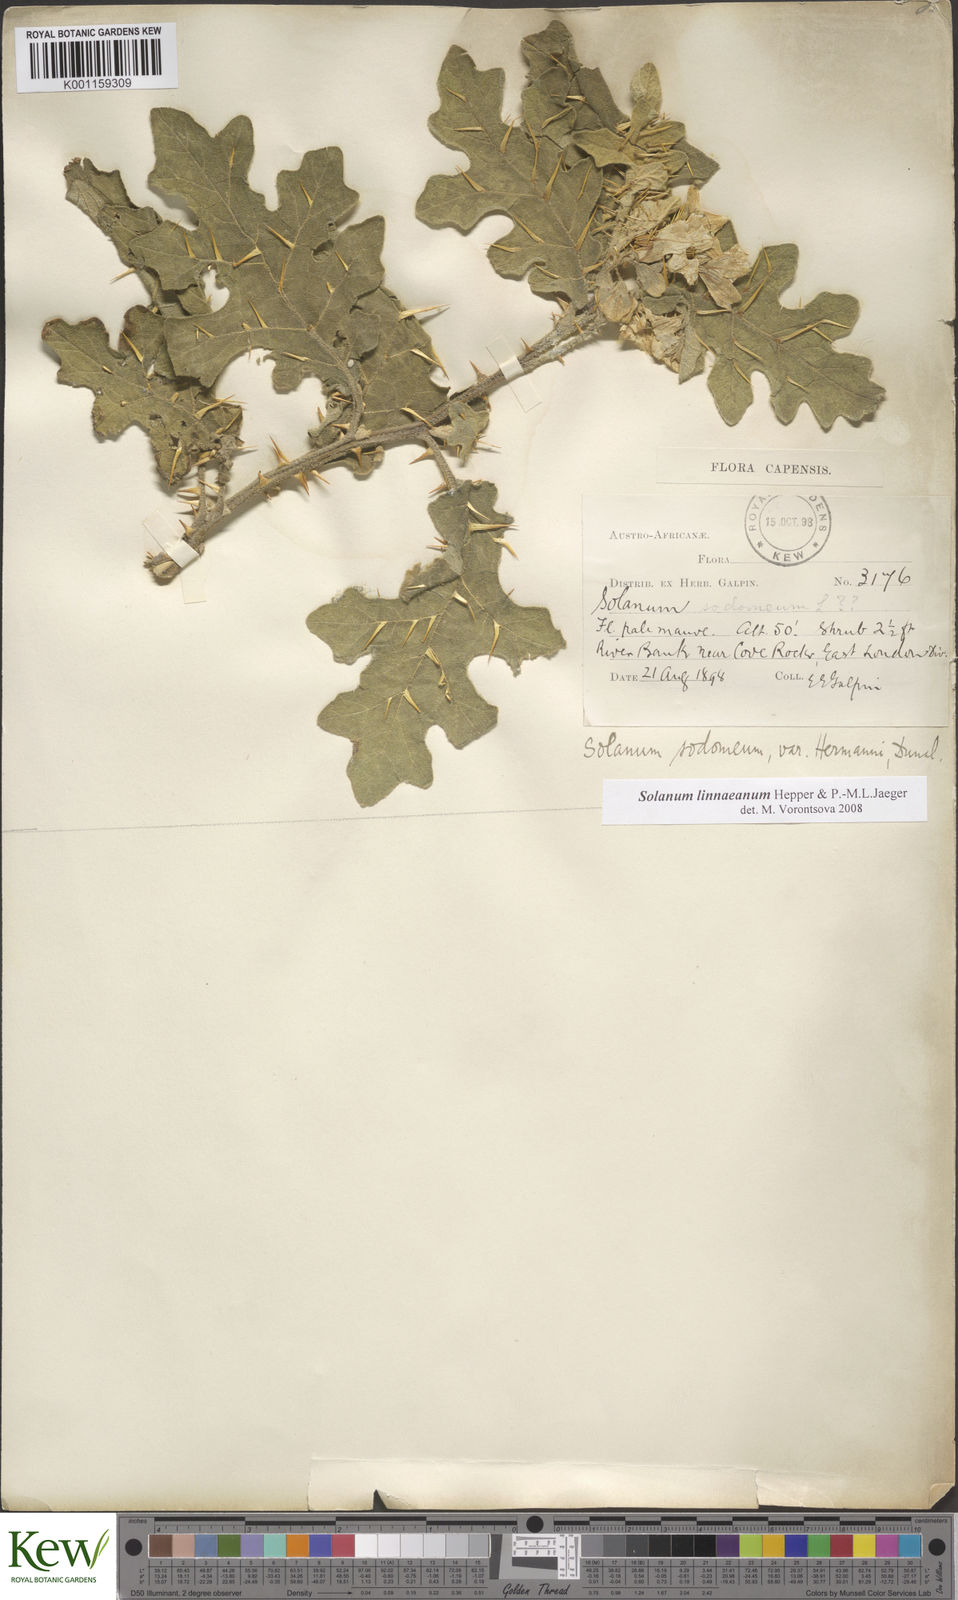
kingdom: Plantae
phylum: Tracheophyta
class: Magnoliopsida
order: Solanales
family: Solanaceae
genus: Solanum
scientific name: Solanum linnaeanum
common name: Nightshade
